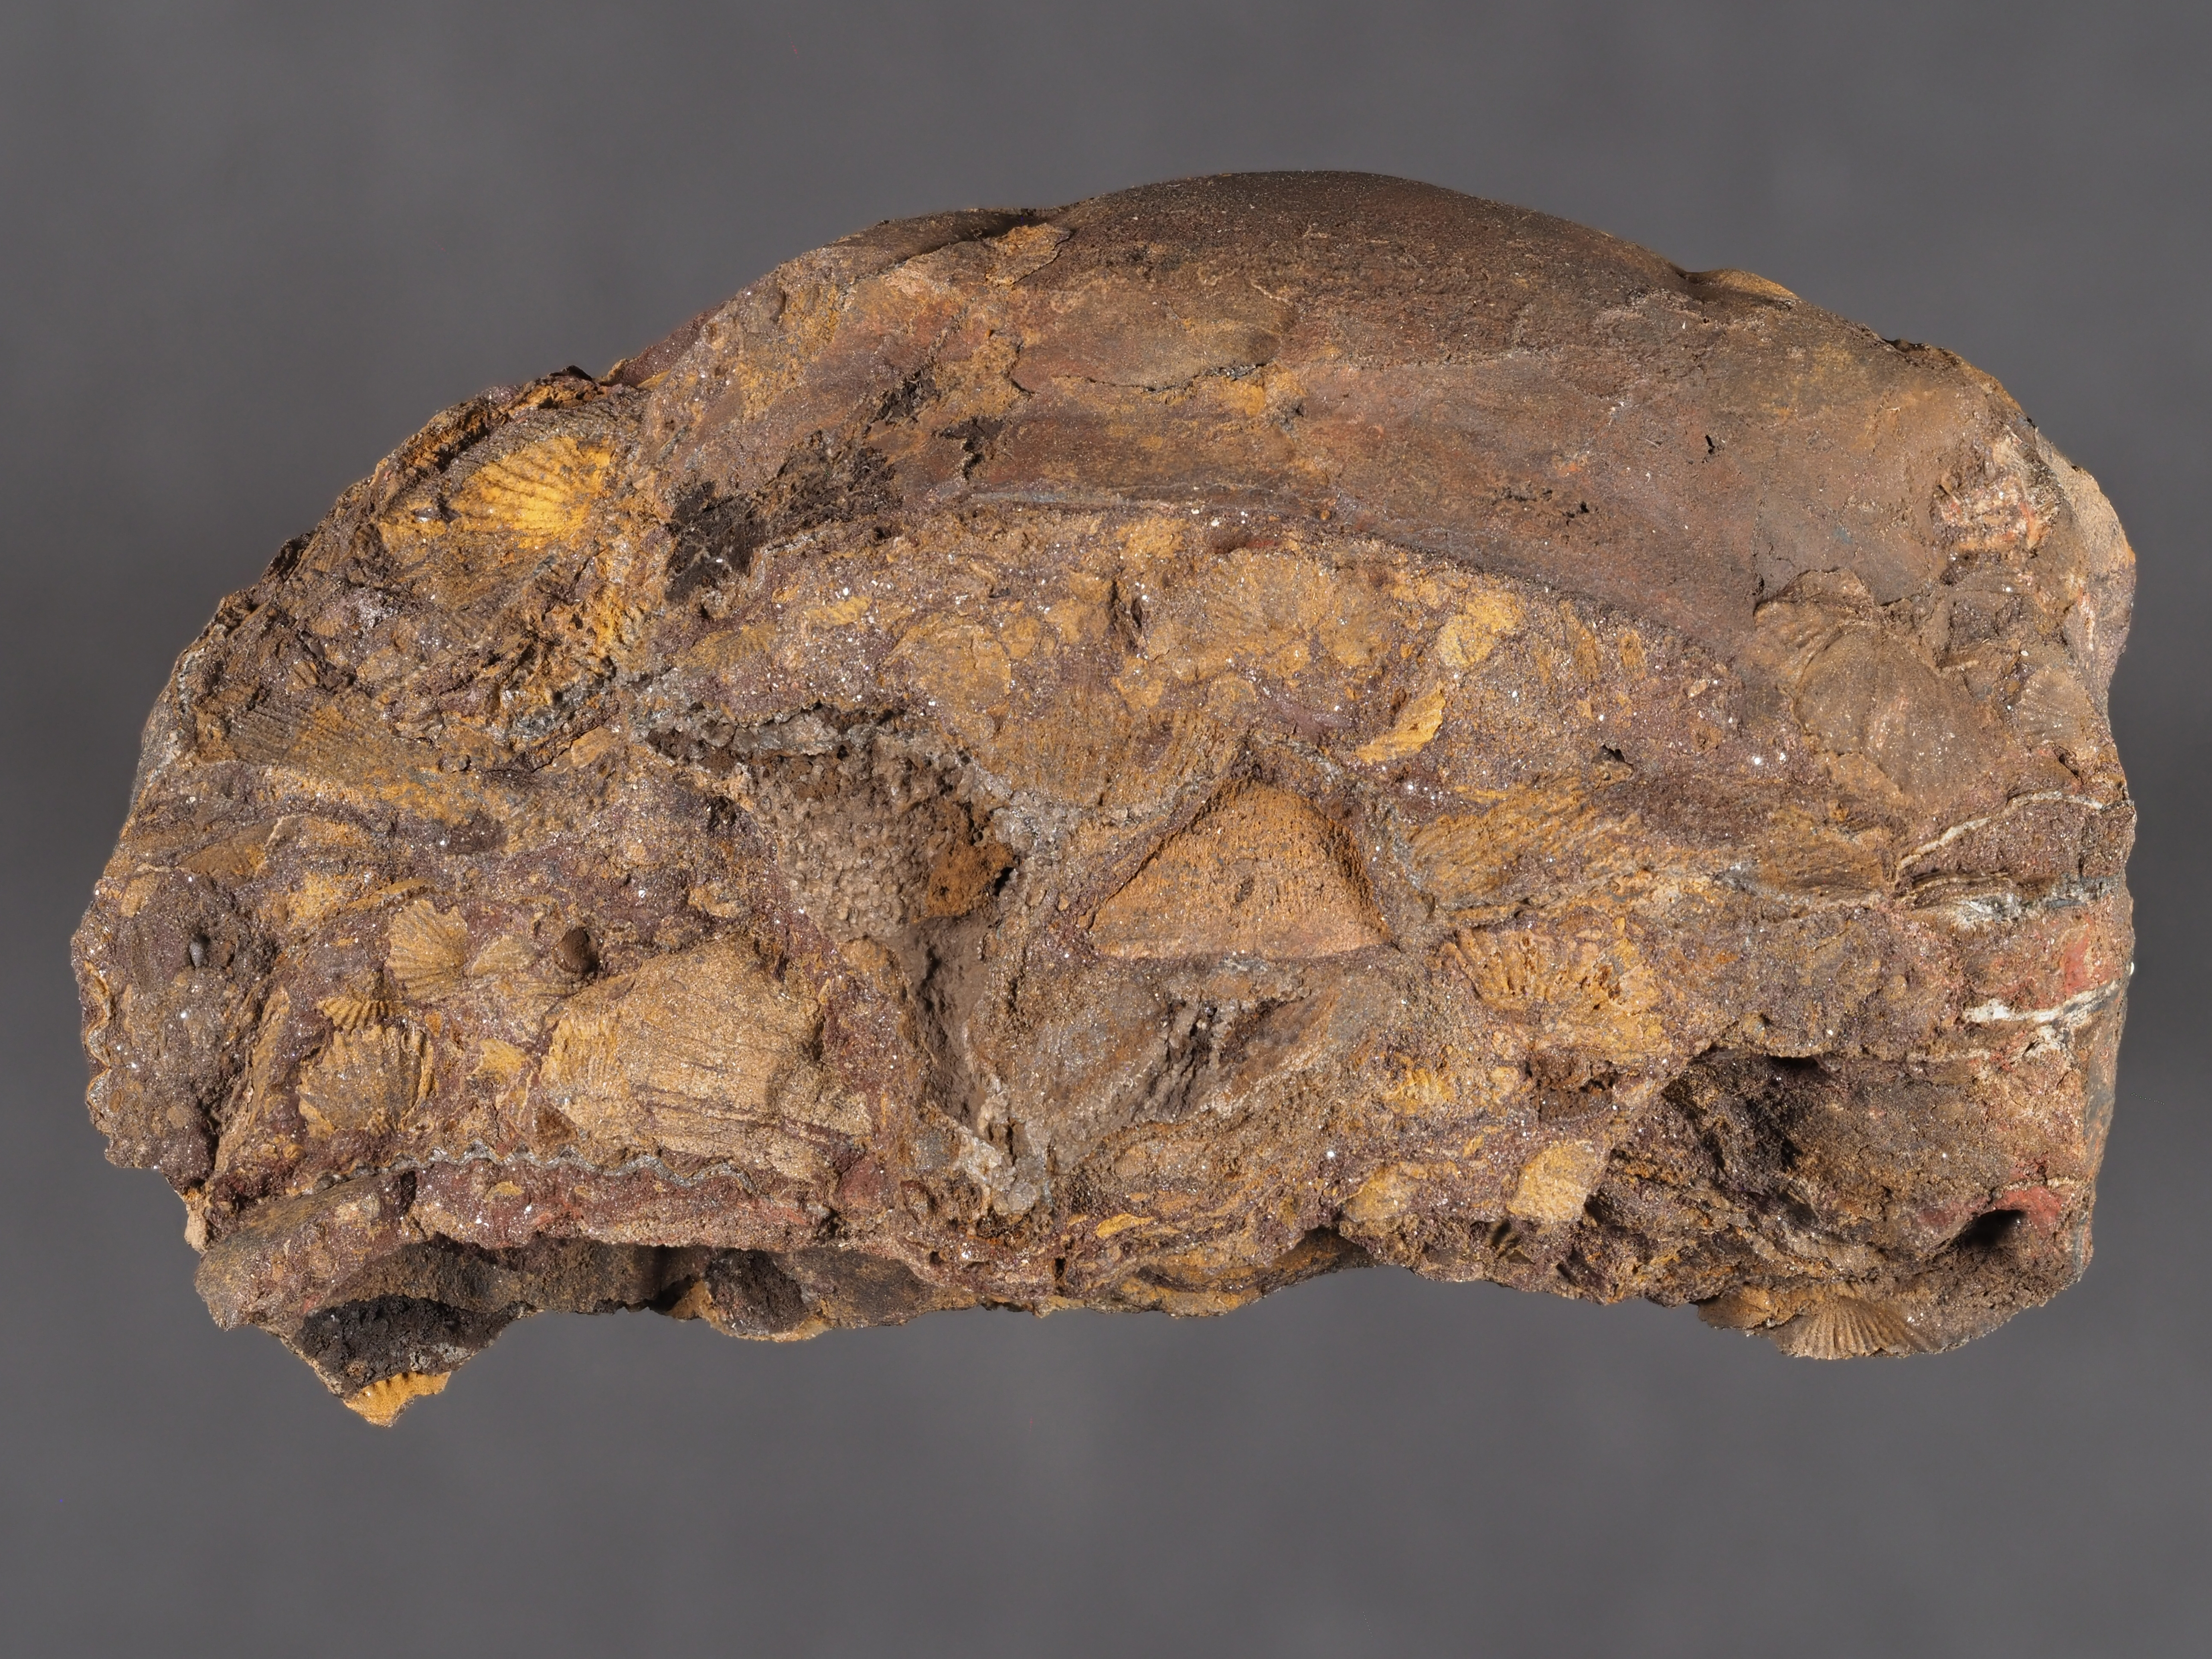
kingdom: Animalia
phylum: Arthropoda
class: Trilobita
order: Phacopida
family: Homalonotidae
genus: Digonus
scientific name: Digonus
